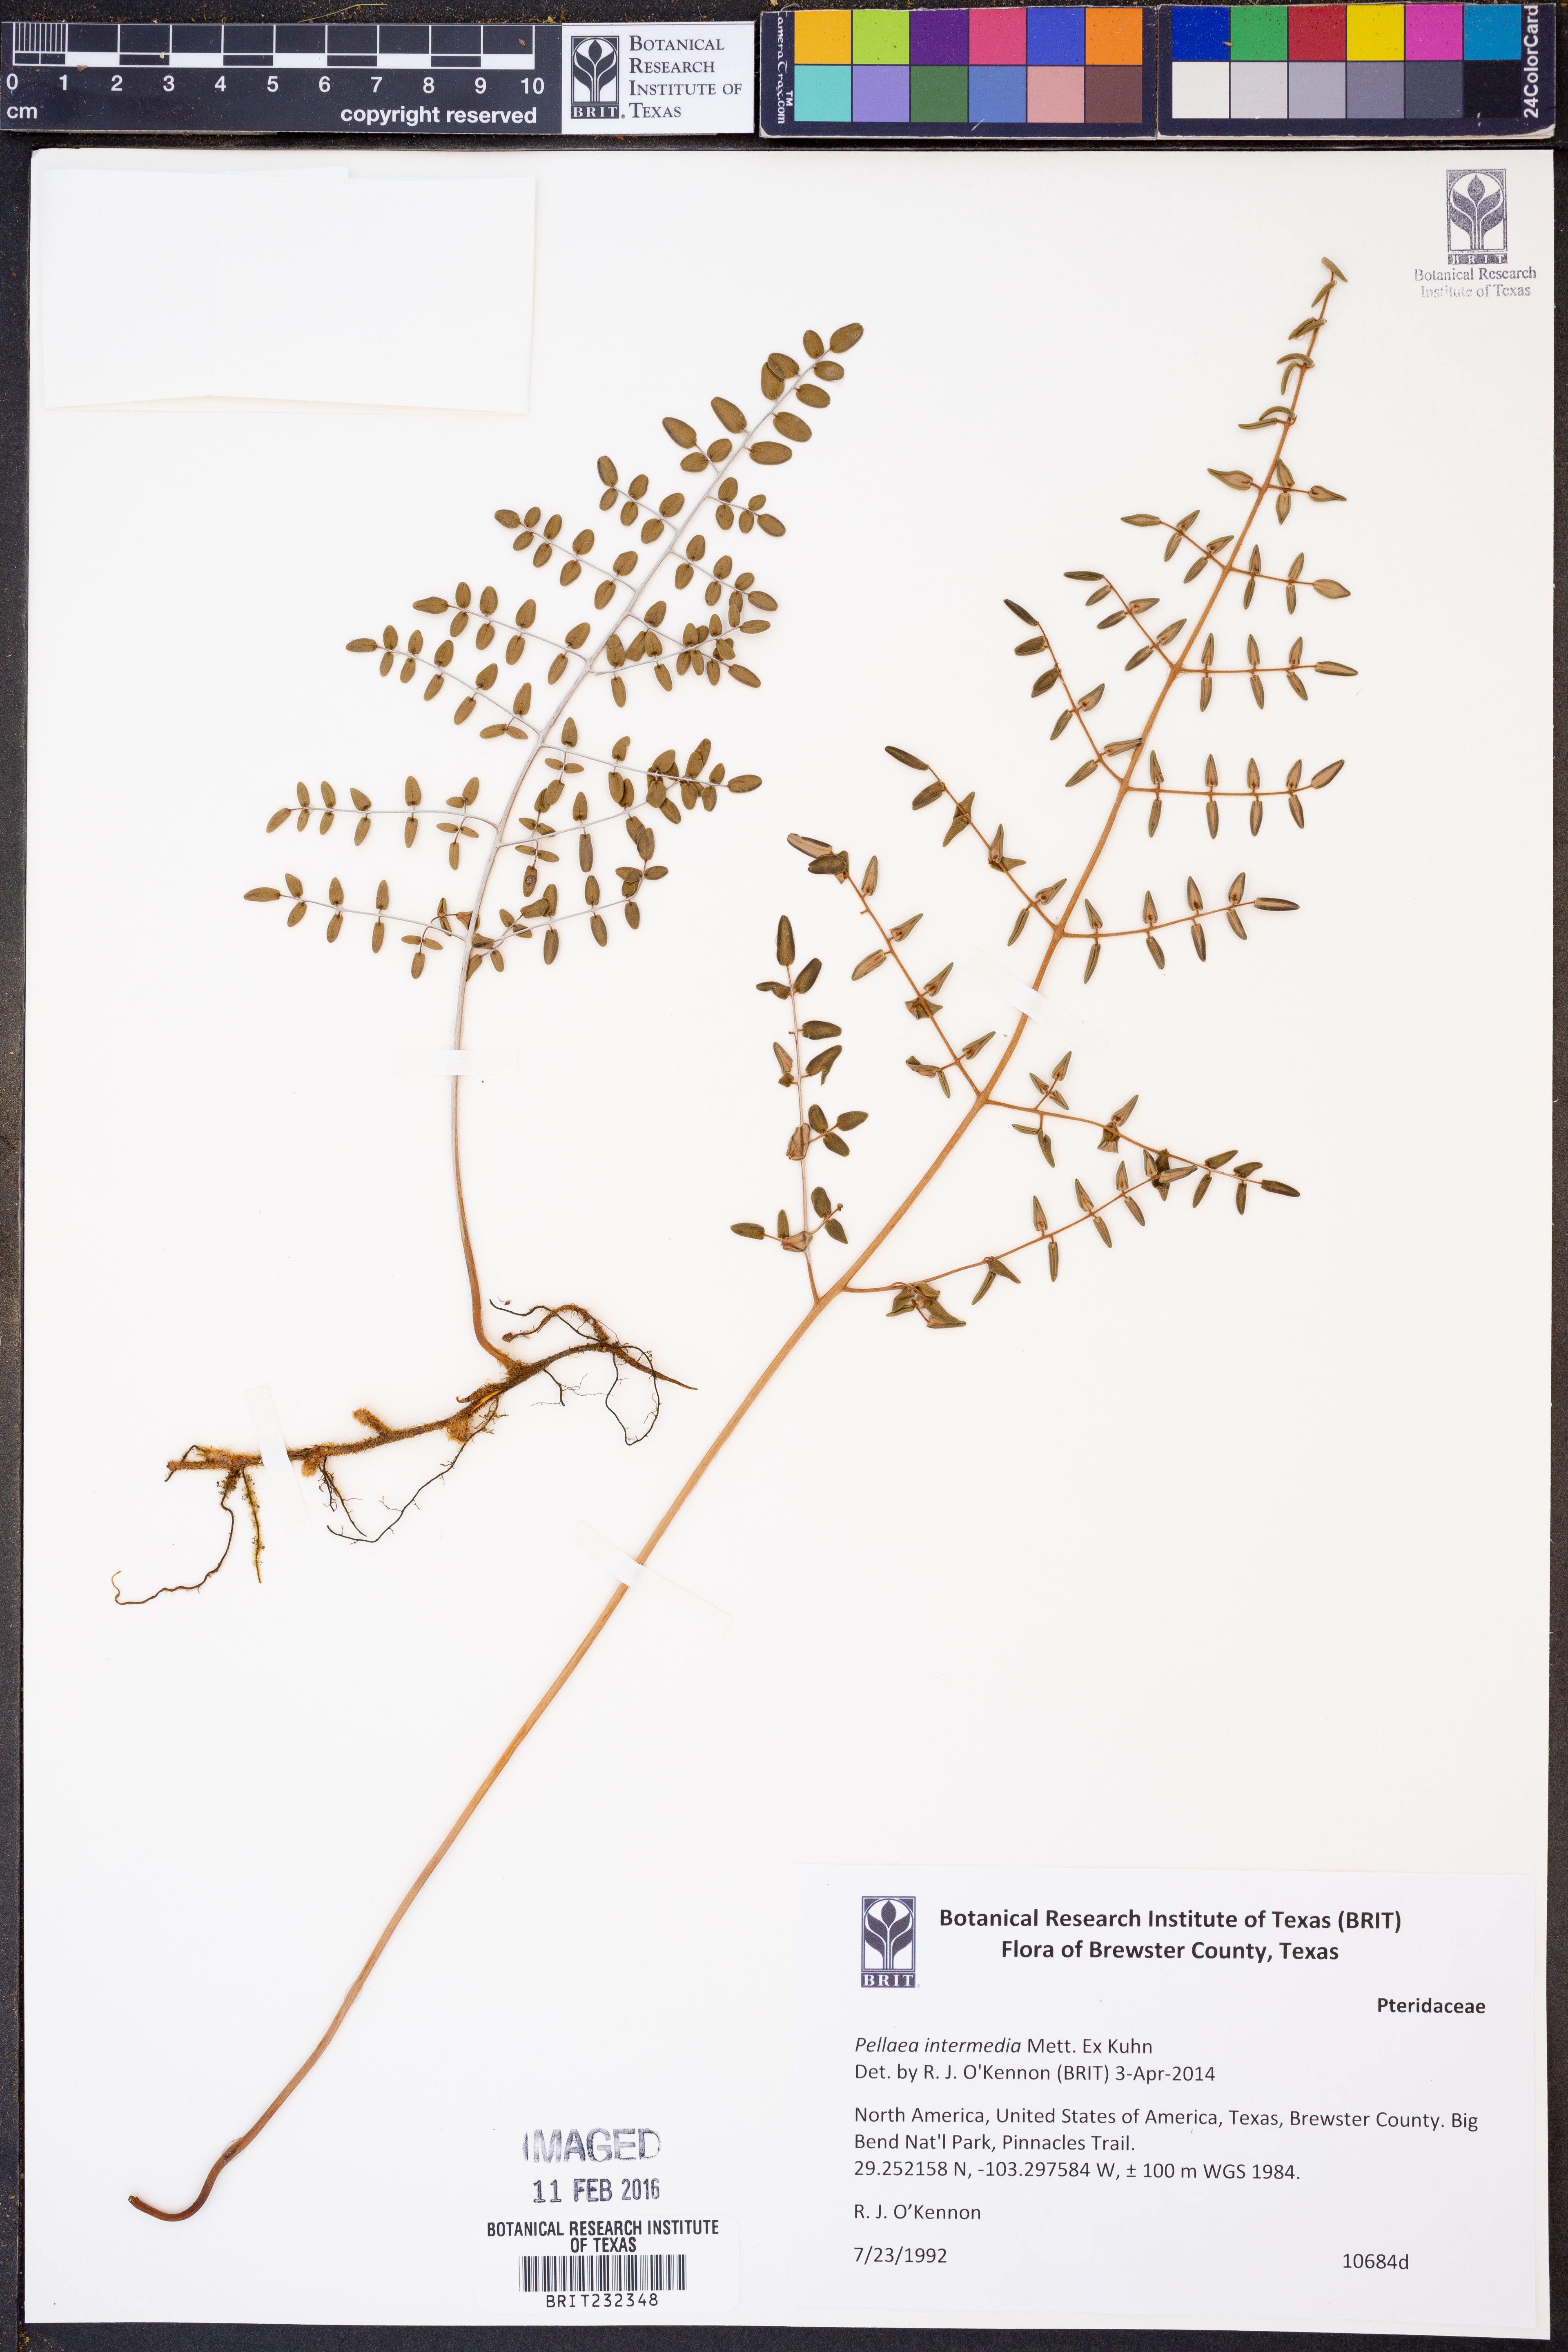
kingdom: Plantae
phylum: Tracheophyta
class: Polypodiopsida
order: Polypodiales
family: Pteridaceae
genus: Pellaea
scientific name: Pellaea intermedia
